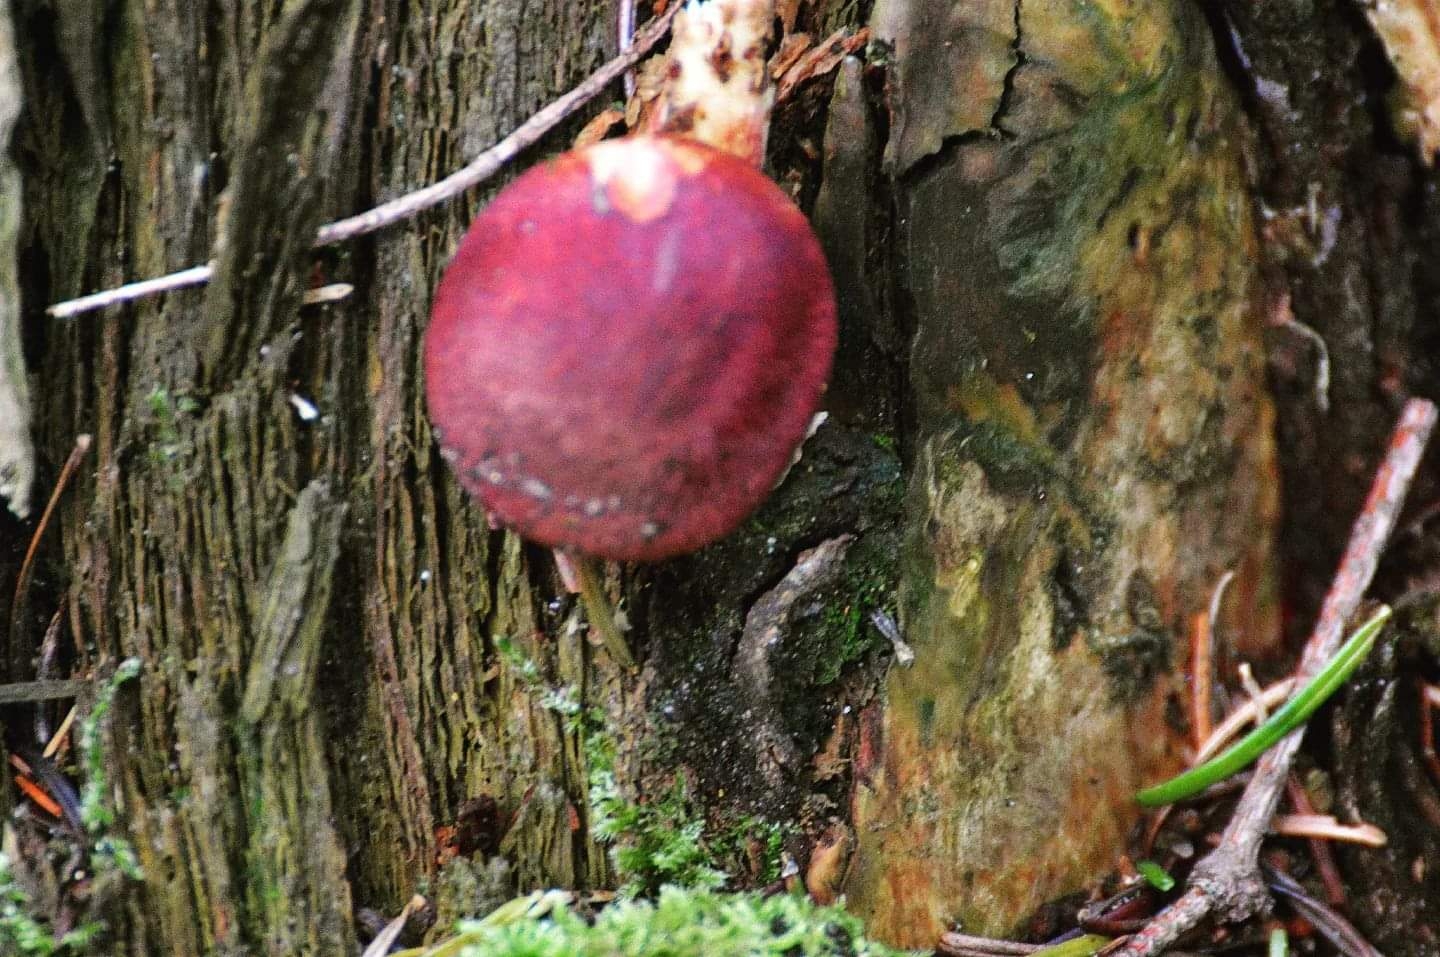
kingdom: Fungi
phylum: Basidiomycota
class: Agaricomycetes
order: Agaricales
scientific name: Agaricales
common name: champignonordenen
